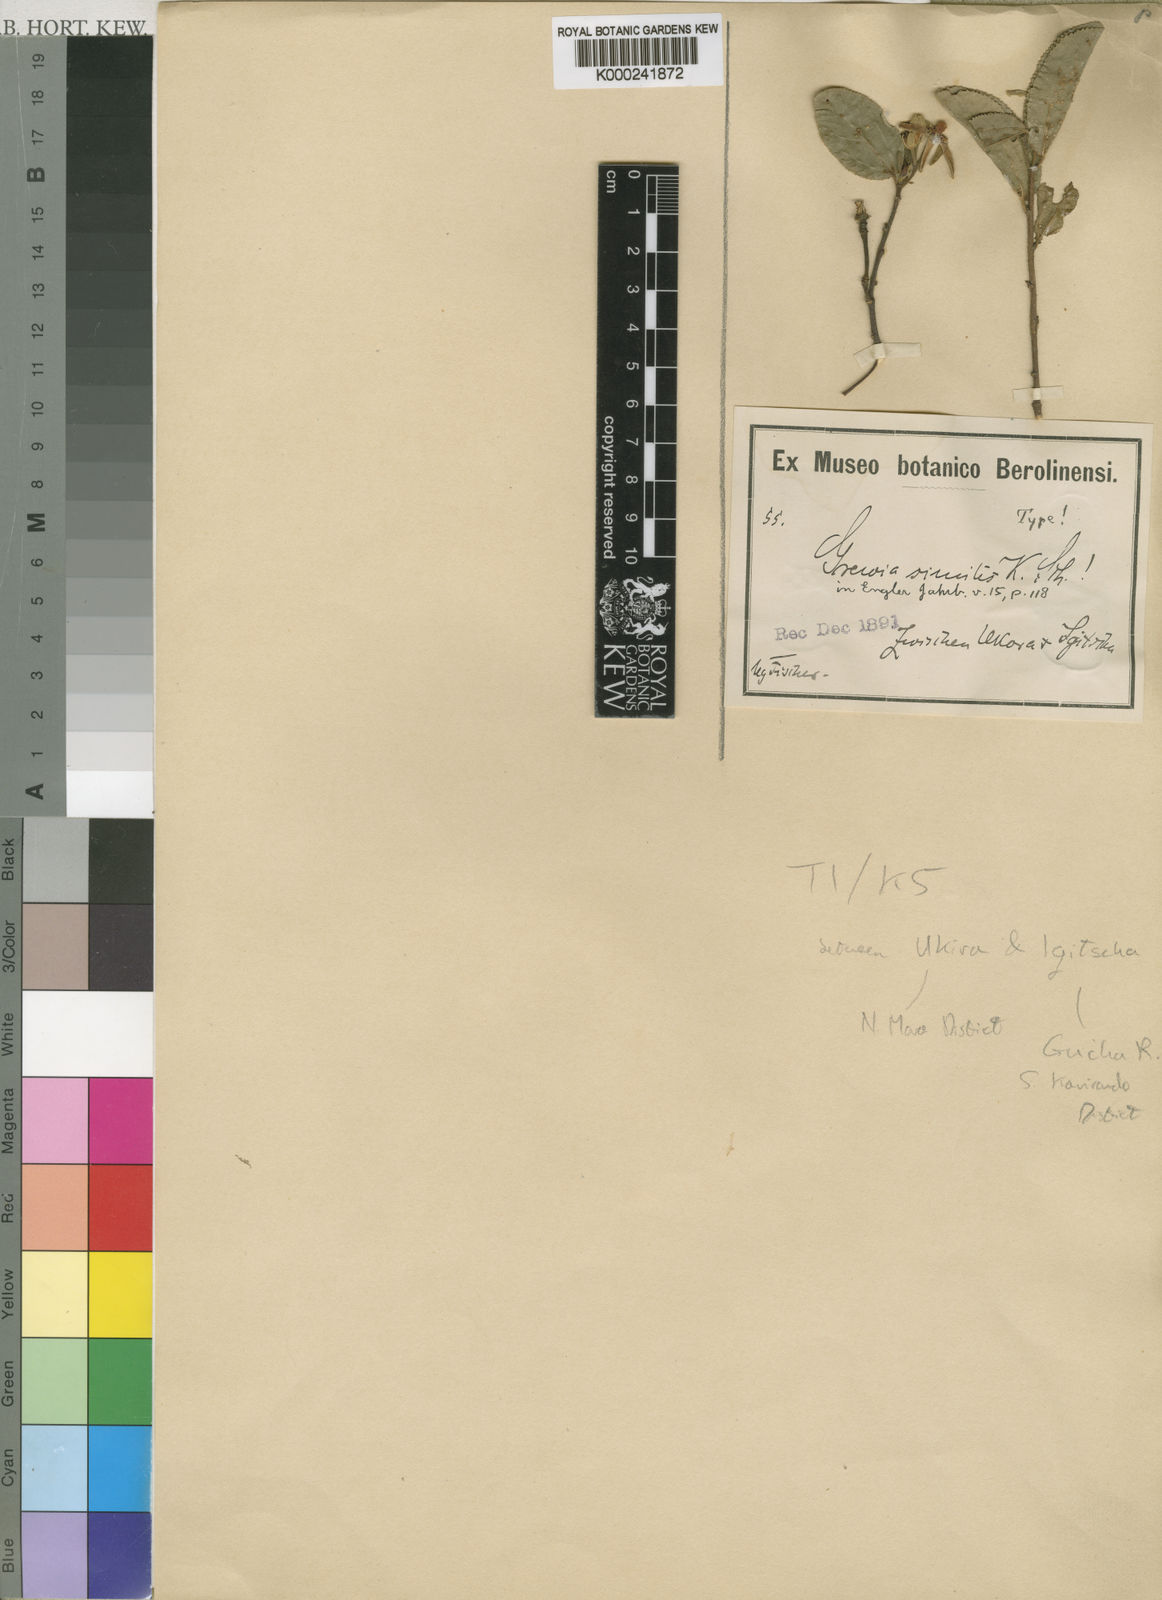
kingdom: Plantae
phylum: Tracheophyta
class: Magnoliopsida
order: Malvales
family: Malvaceae
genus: Grewia
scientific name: Grewia similis
